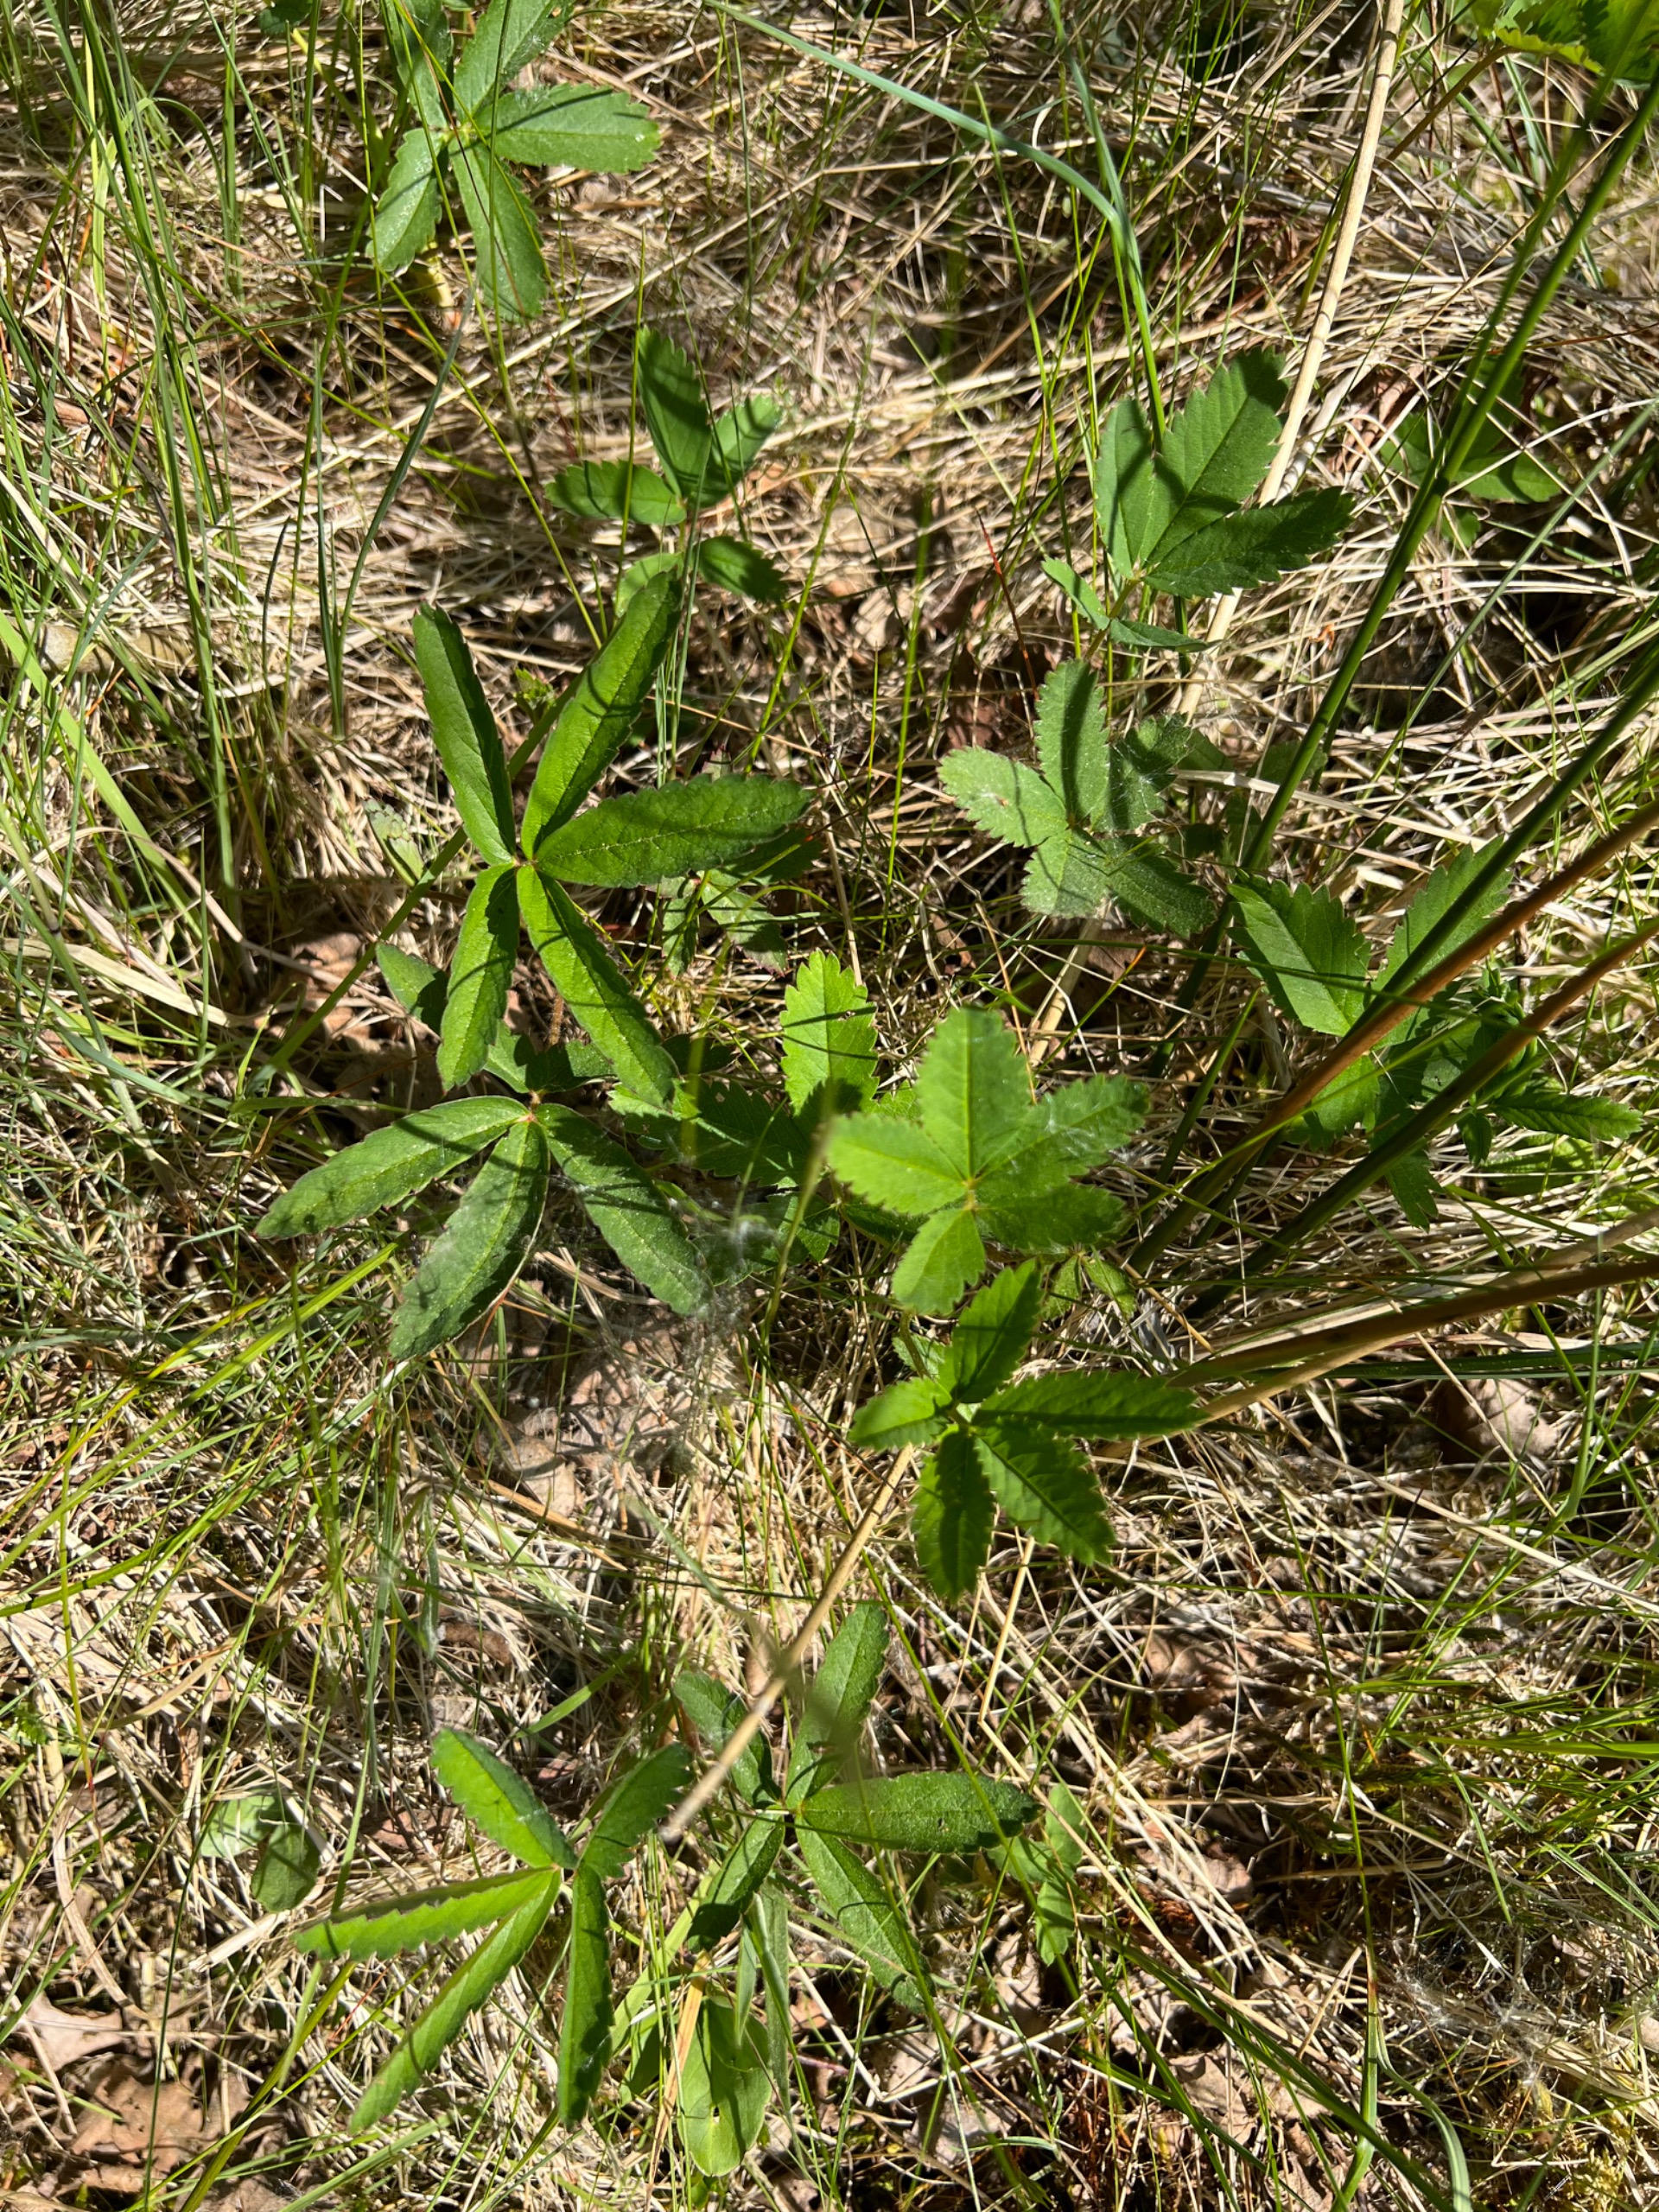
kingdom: Plantae
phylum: Tracheophyta
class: Magnoliopsida
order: Rosales
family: Rosaceae
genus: Comarum
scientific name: Comarum palustre
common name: Kragefod
